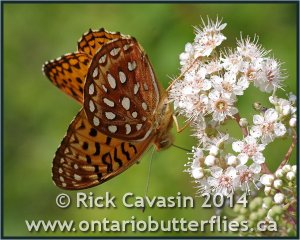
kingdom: Animalia
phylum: Arthropoda
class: Insecta
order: Lepidoptera
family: Nymphalidae
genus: Speyeria
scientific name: Speyeria aphrodite
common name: Aphrodite Fritillary
